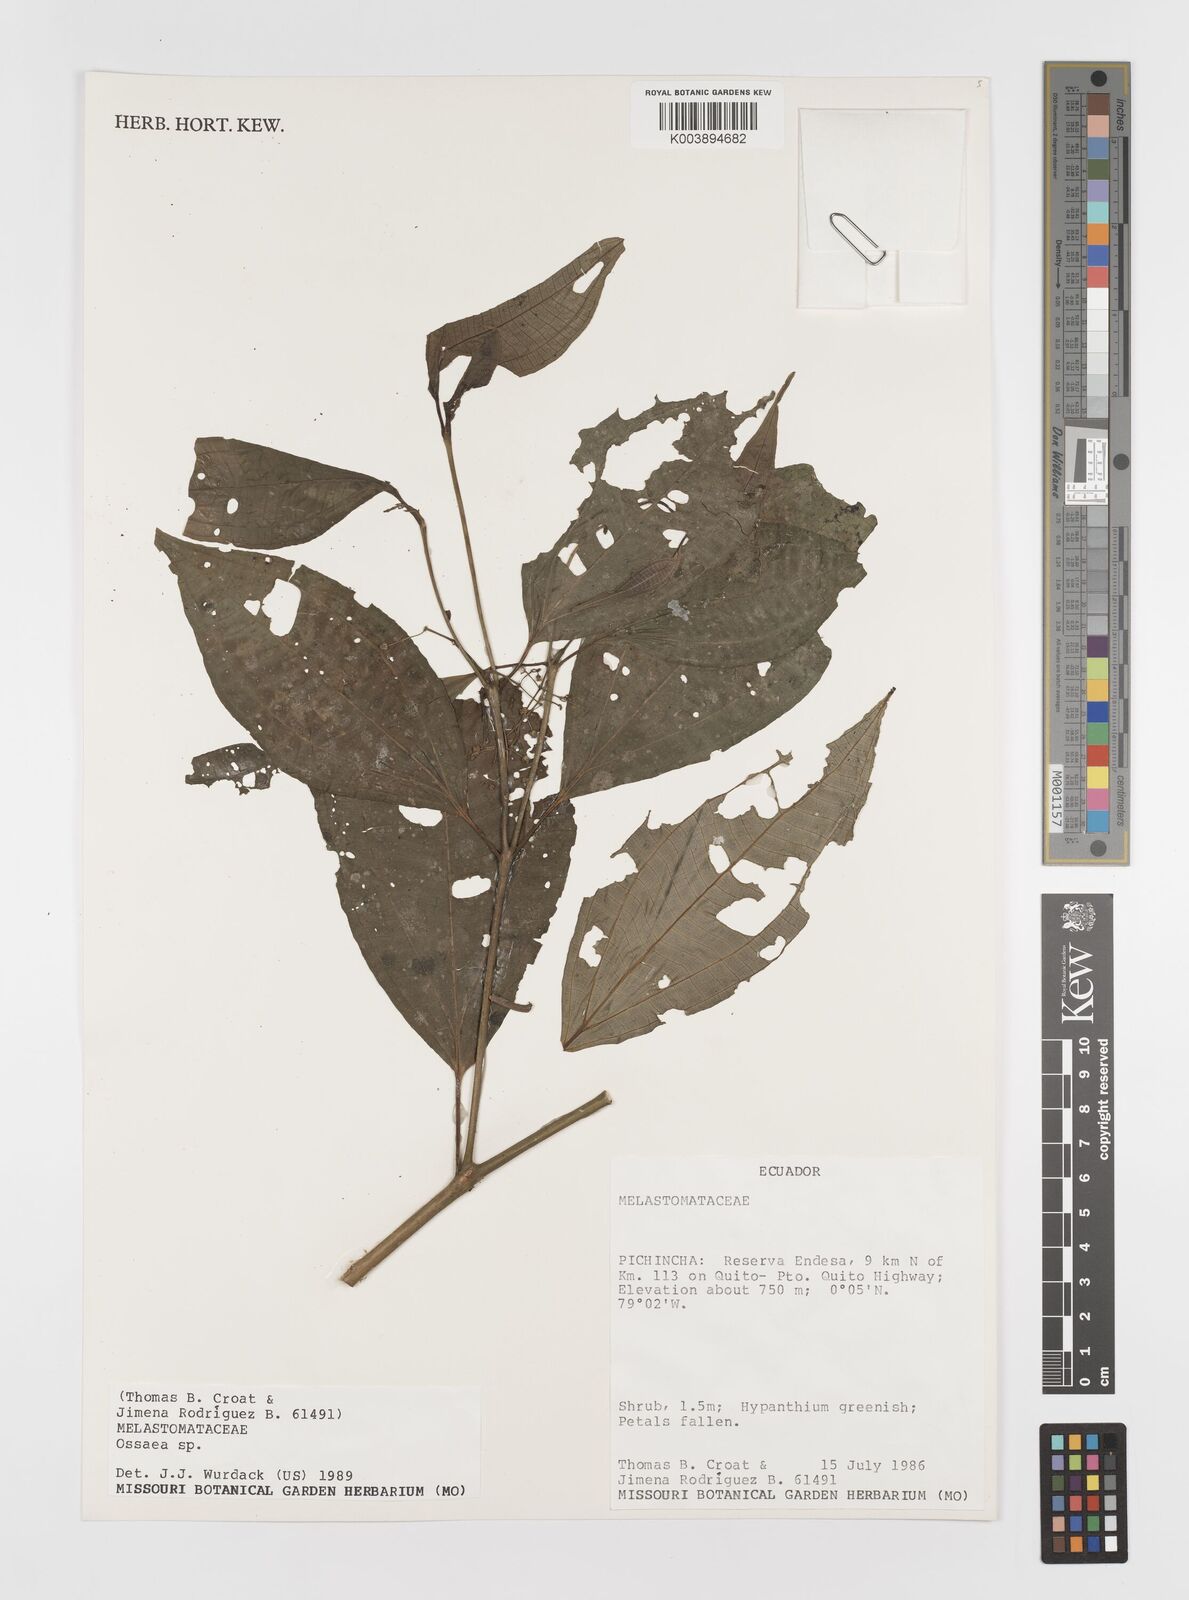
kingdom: Plantae
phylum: Tracheophyta
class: Magnoliopsida
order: Myrtales
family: Melastomataceae
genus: Ossaea
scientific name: Ossaea
